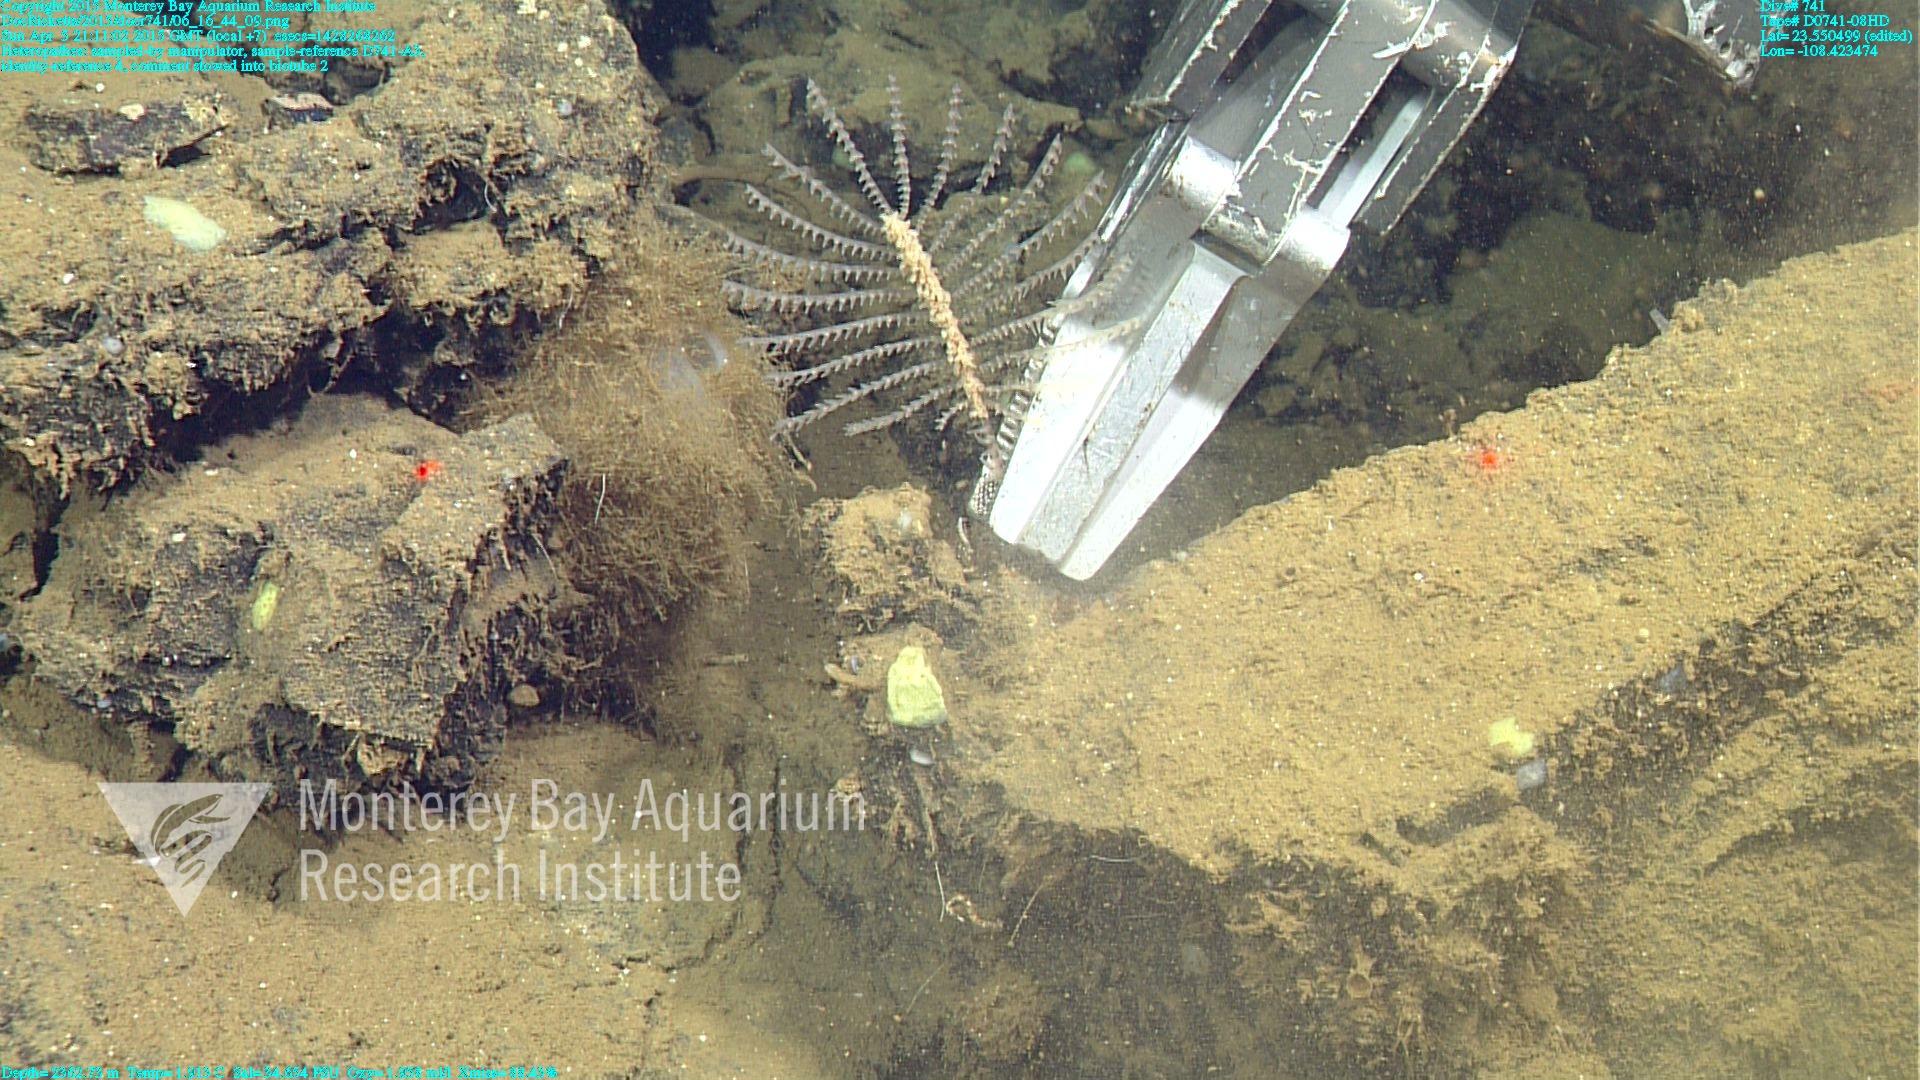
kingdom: Animalia
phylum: Cnidaria
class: Anthozoa
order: Antipatharia
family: Cladopathidae
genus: Heteropathes
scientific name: Heteropathes
